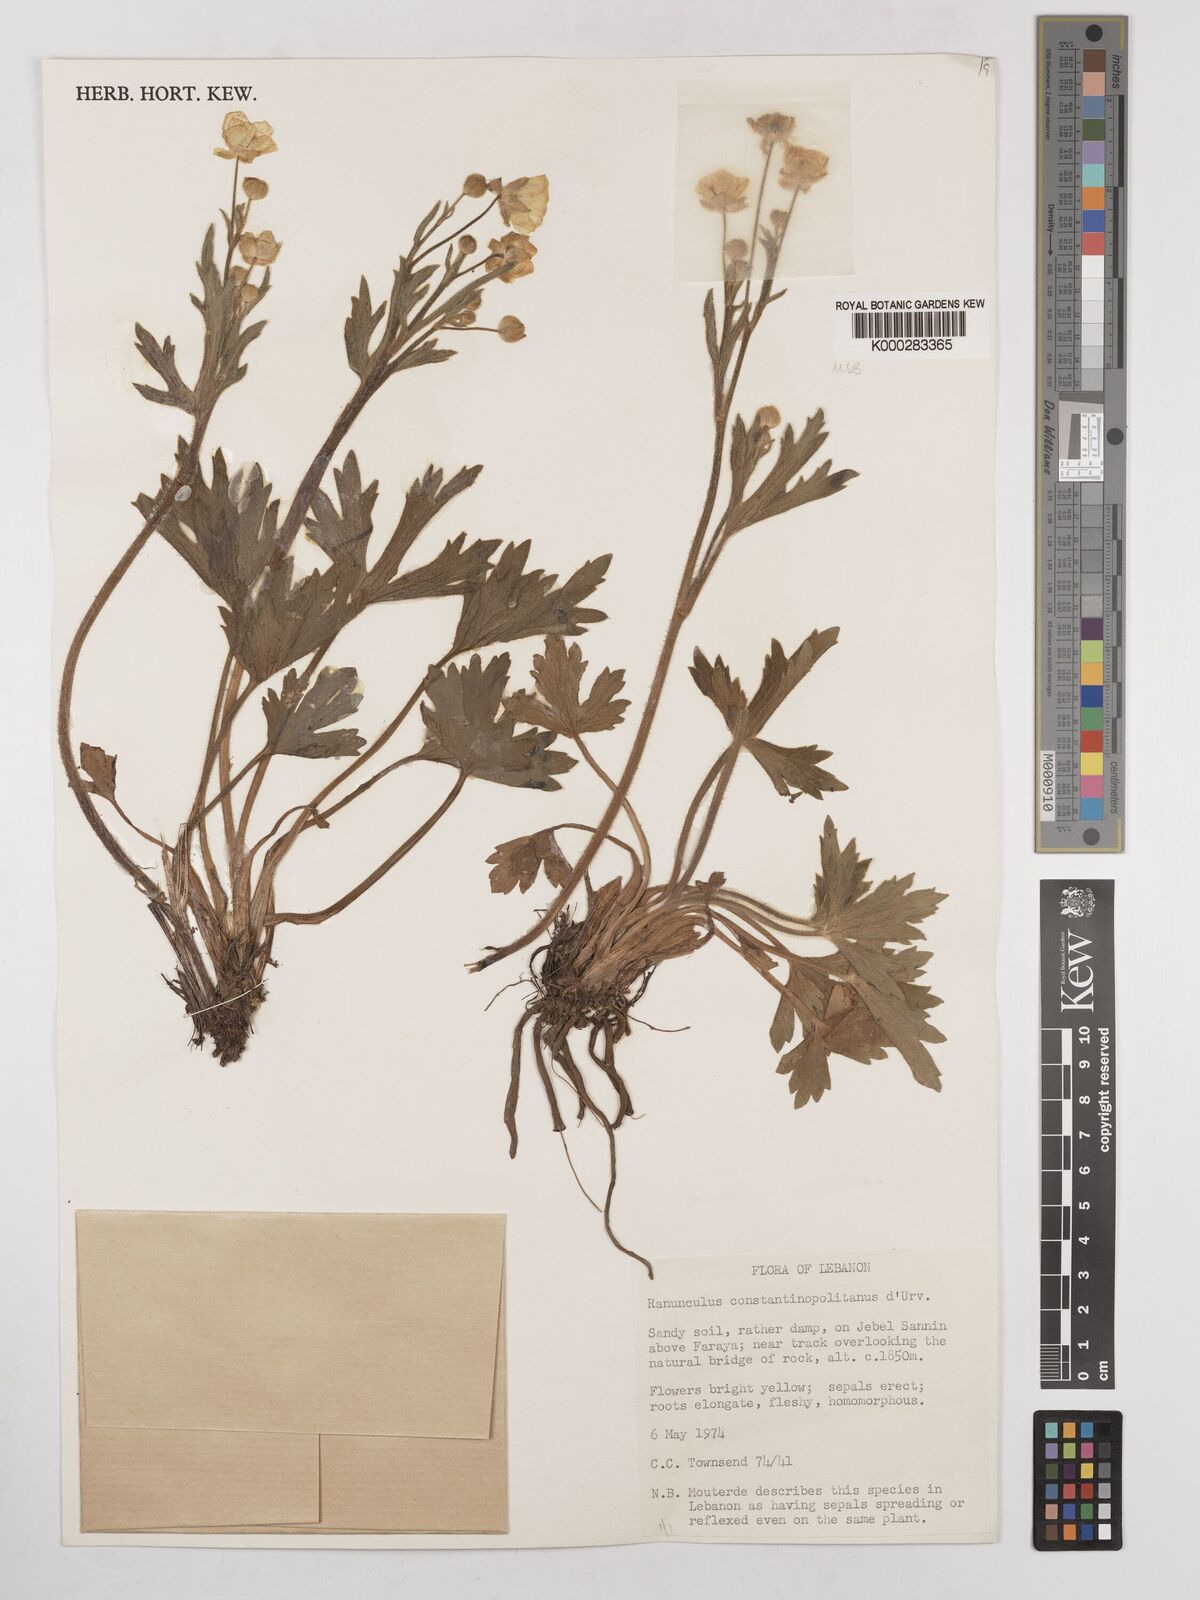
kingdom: Plantae
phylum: Tracheophyta
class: Magnoliopsida
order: Ranunculales
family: Ranunculaceae
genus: Ranunculus
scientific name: Ranunculus constantinopolitanus
